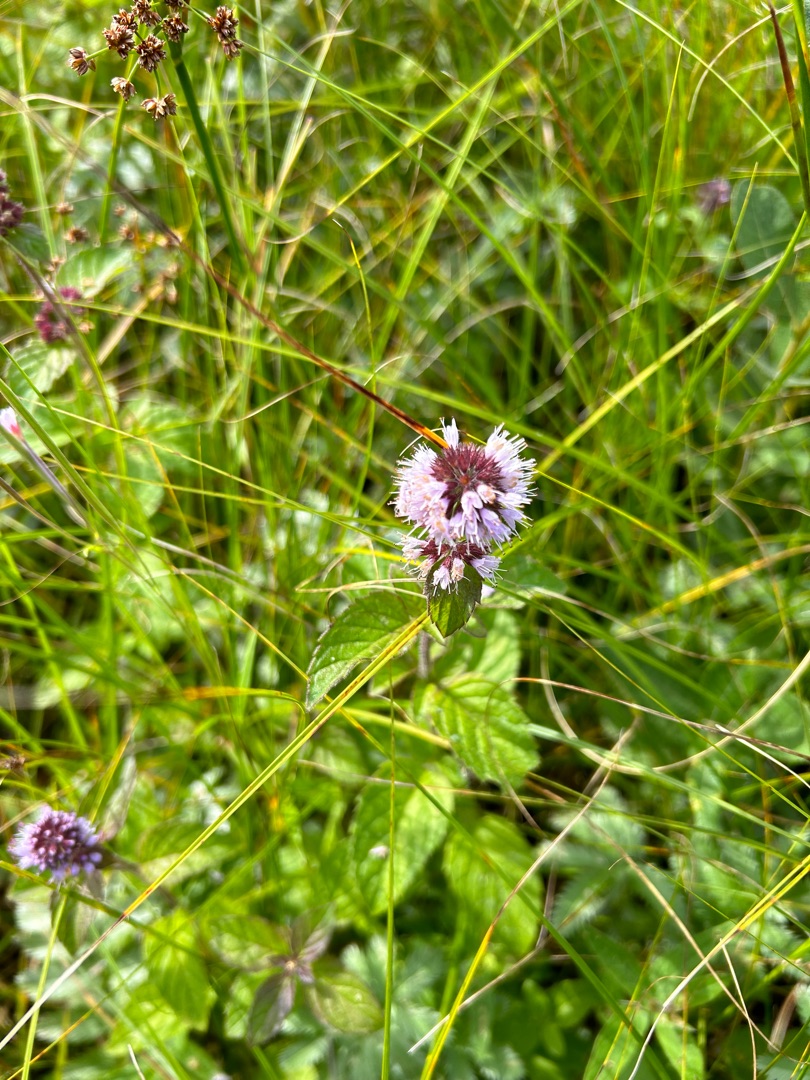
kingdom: Plantae
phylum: Tracheophyta
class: Magnoliopsida
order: Lamiales
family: Lamiaceae
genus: Mentha
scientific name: Mentha aquatica
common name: Vand-mynte
